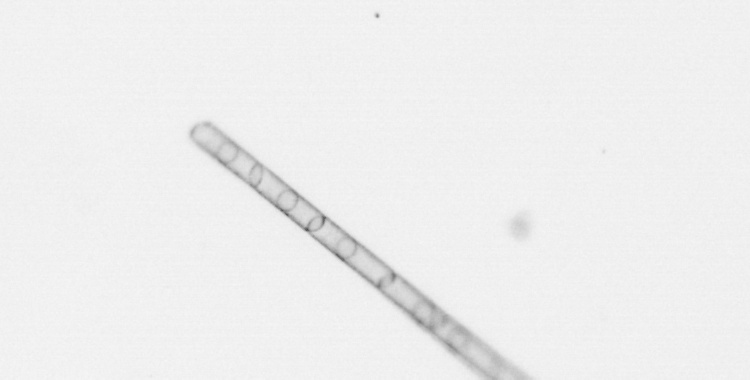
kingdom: Chromista
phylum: Ochrophyta
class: Bacillariophyceae
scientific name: Bacillariophyceae
